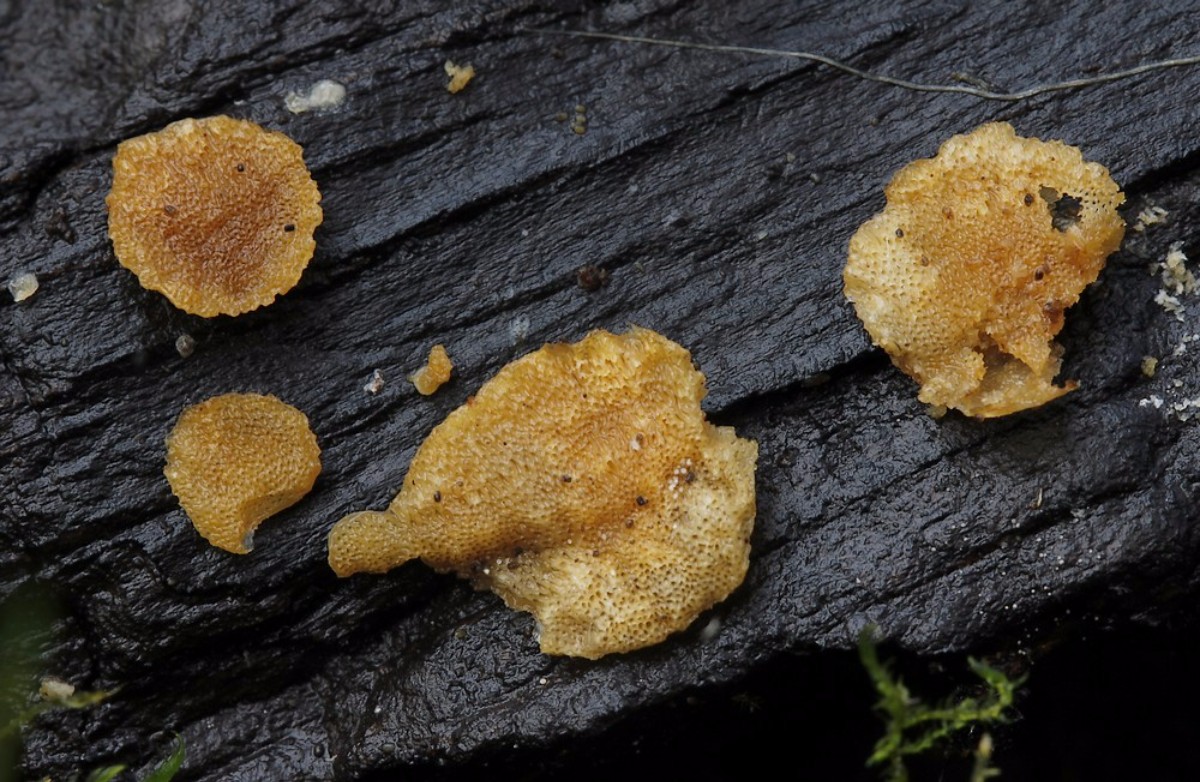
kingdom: Fungi
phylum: Basidiomycota
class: Agaricomycetes
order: Polyporales
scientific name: Polyporales
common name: poresvampordenen
